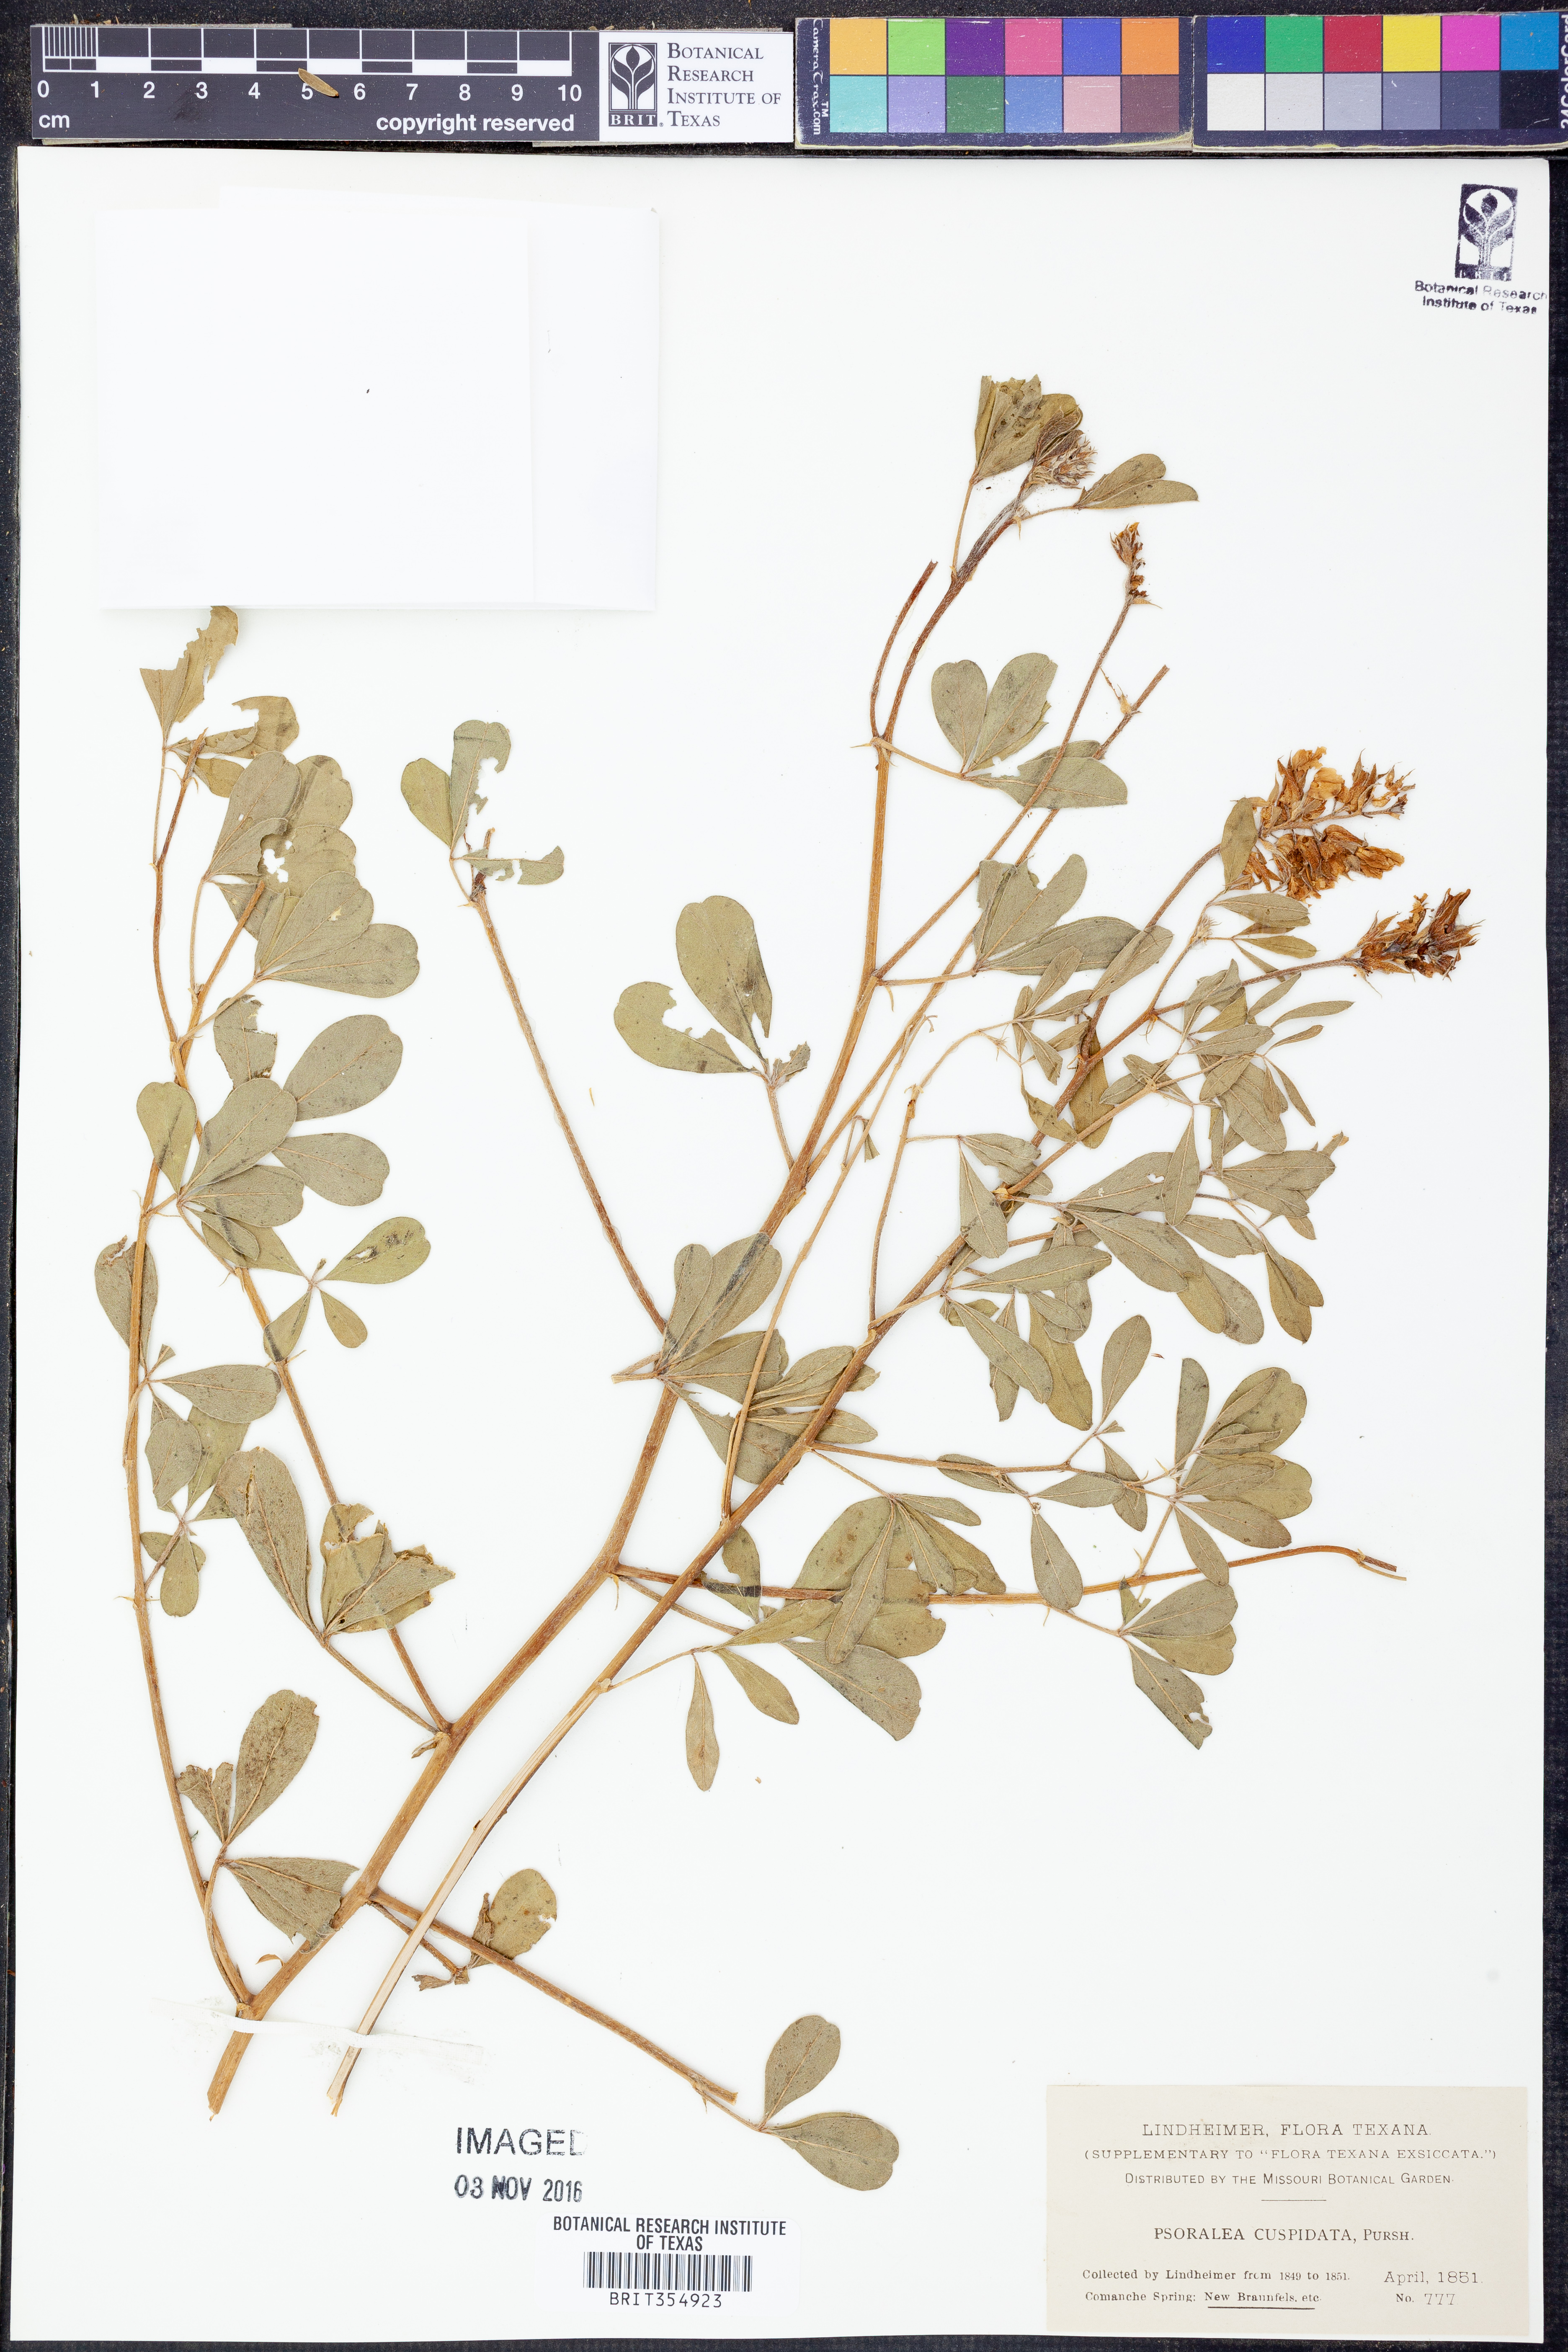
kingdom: Plantae
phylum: Tracheophyta
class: Magnoliopsida
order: Fabales
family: Fabaceae
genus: Pediomelum
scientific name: Pediomelum cuspidatum
